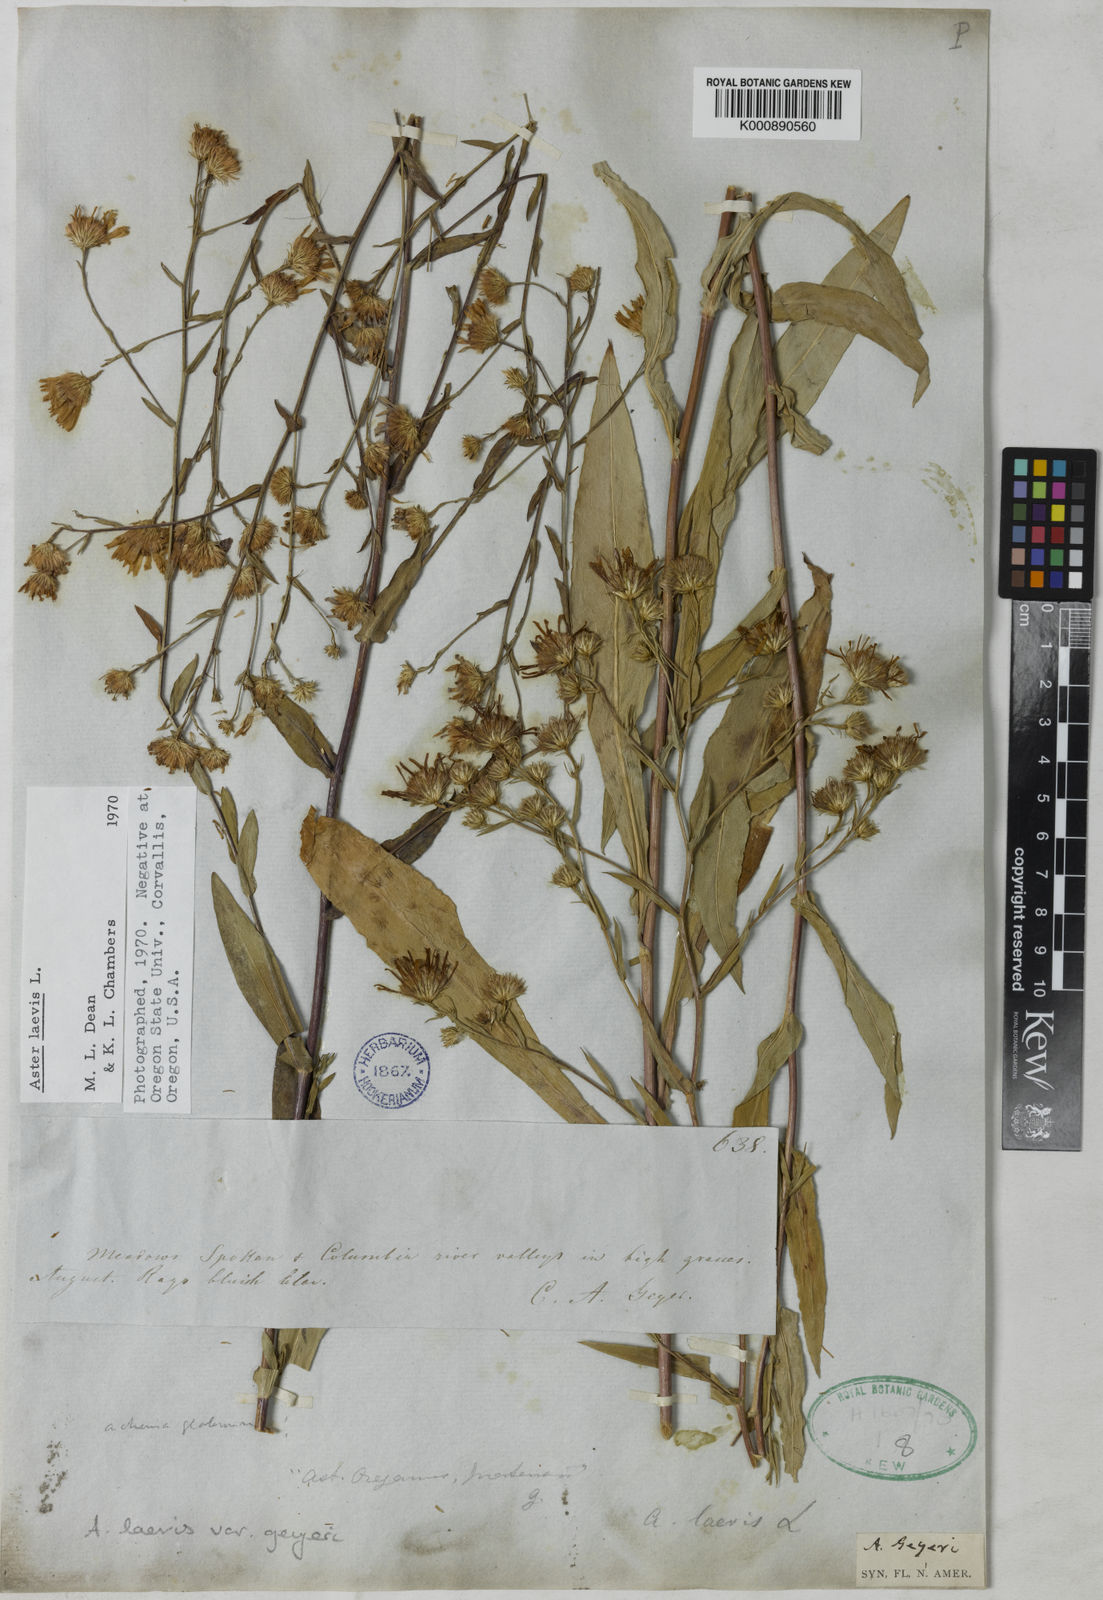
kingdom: Plantae
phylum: Tracheophyta
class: Magnoliopsida
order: Asterales
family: Asteraceae
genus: Symphyotrichum
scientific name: Symphyotrichum laeve
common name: Glaucous aster
